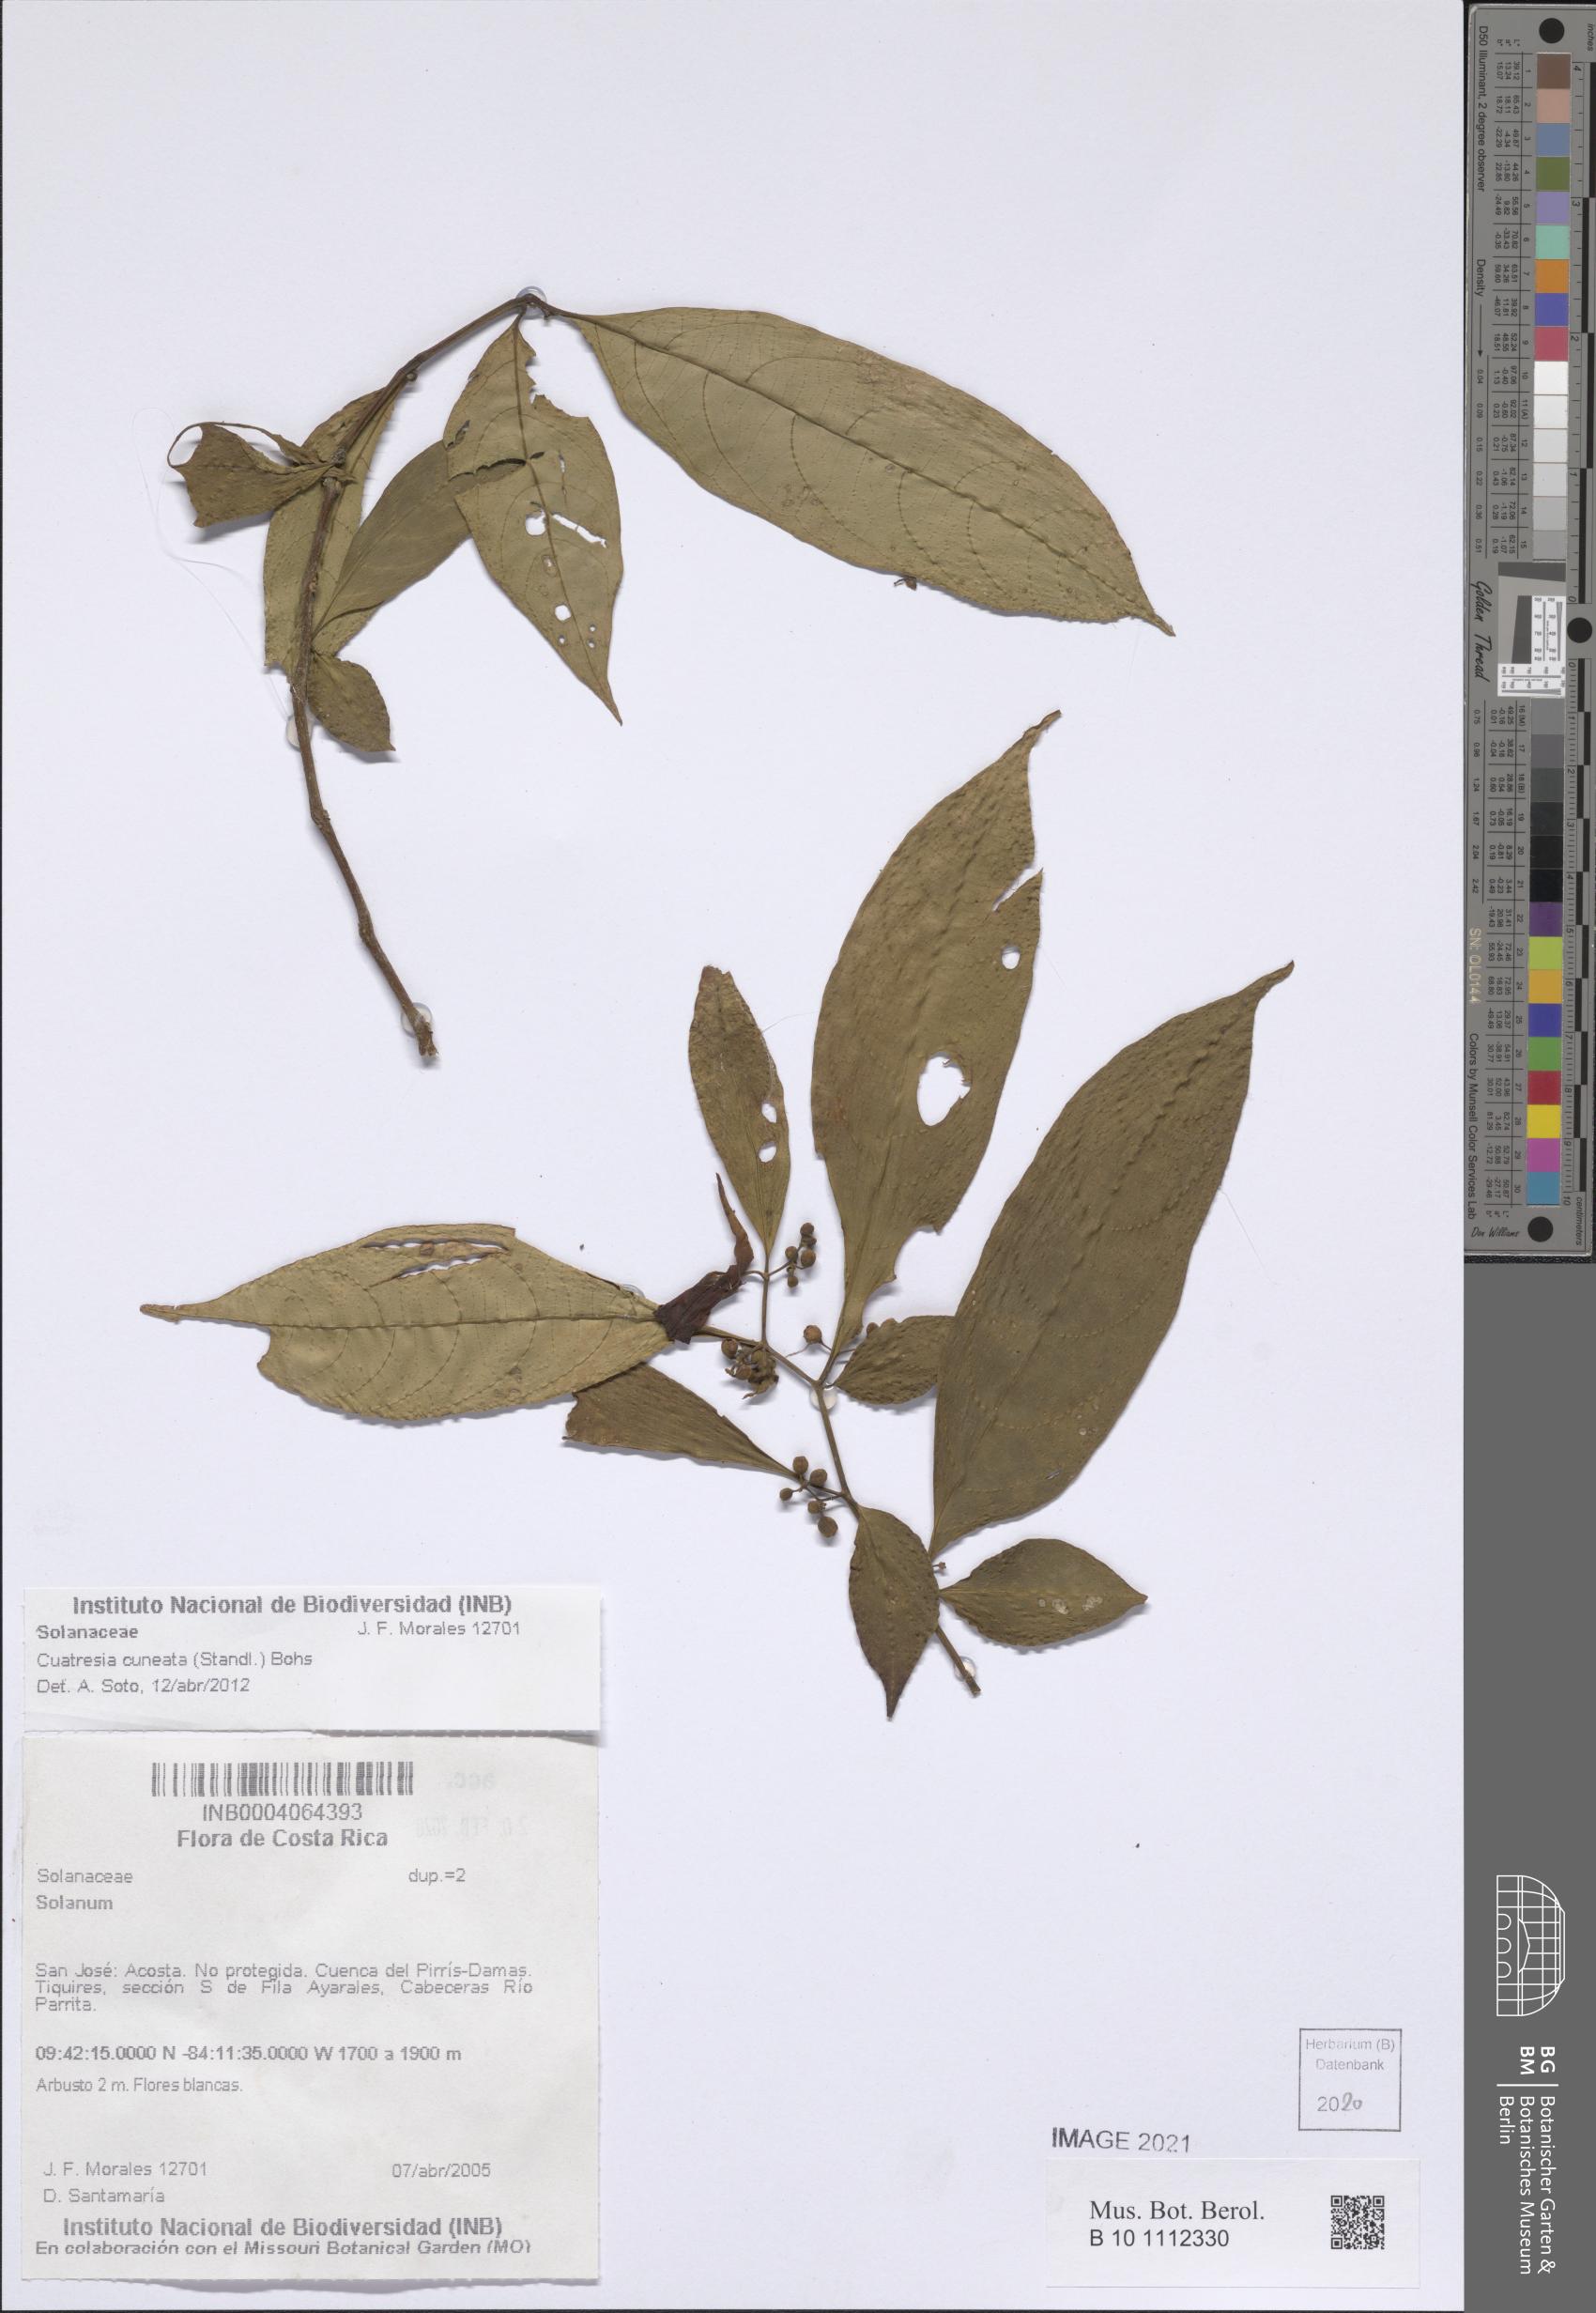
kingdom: Plantae
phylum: Tracheophyta
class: Magnoliopsida
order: Solanales
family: Solanaceae
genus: Cuatresia
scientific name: Cuatresia cuneata
